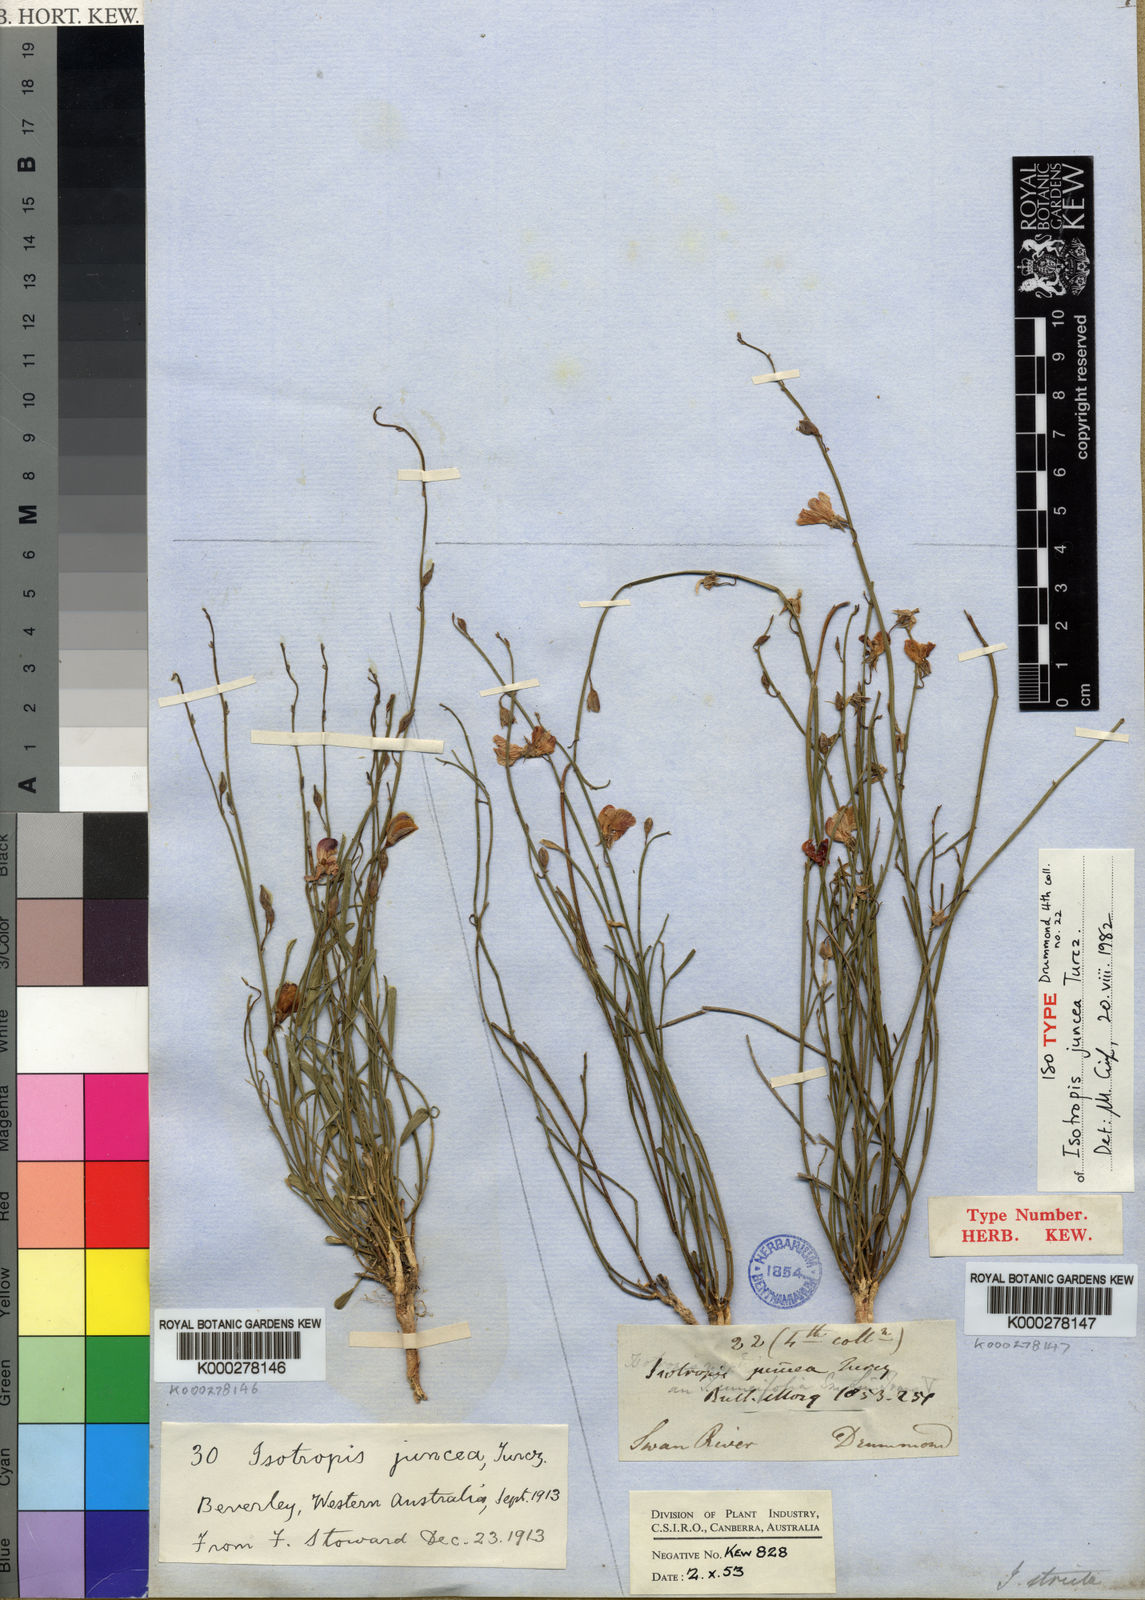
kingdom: Plantae
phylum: Tracheophyta
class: Magnoliopsida
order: Fabales
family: Fabaceae
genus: Isotropis
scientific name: Isotropis juncea
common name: Slender lamb-poison
